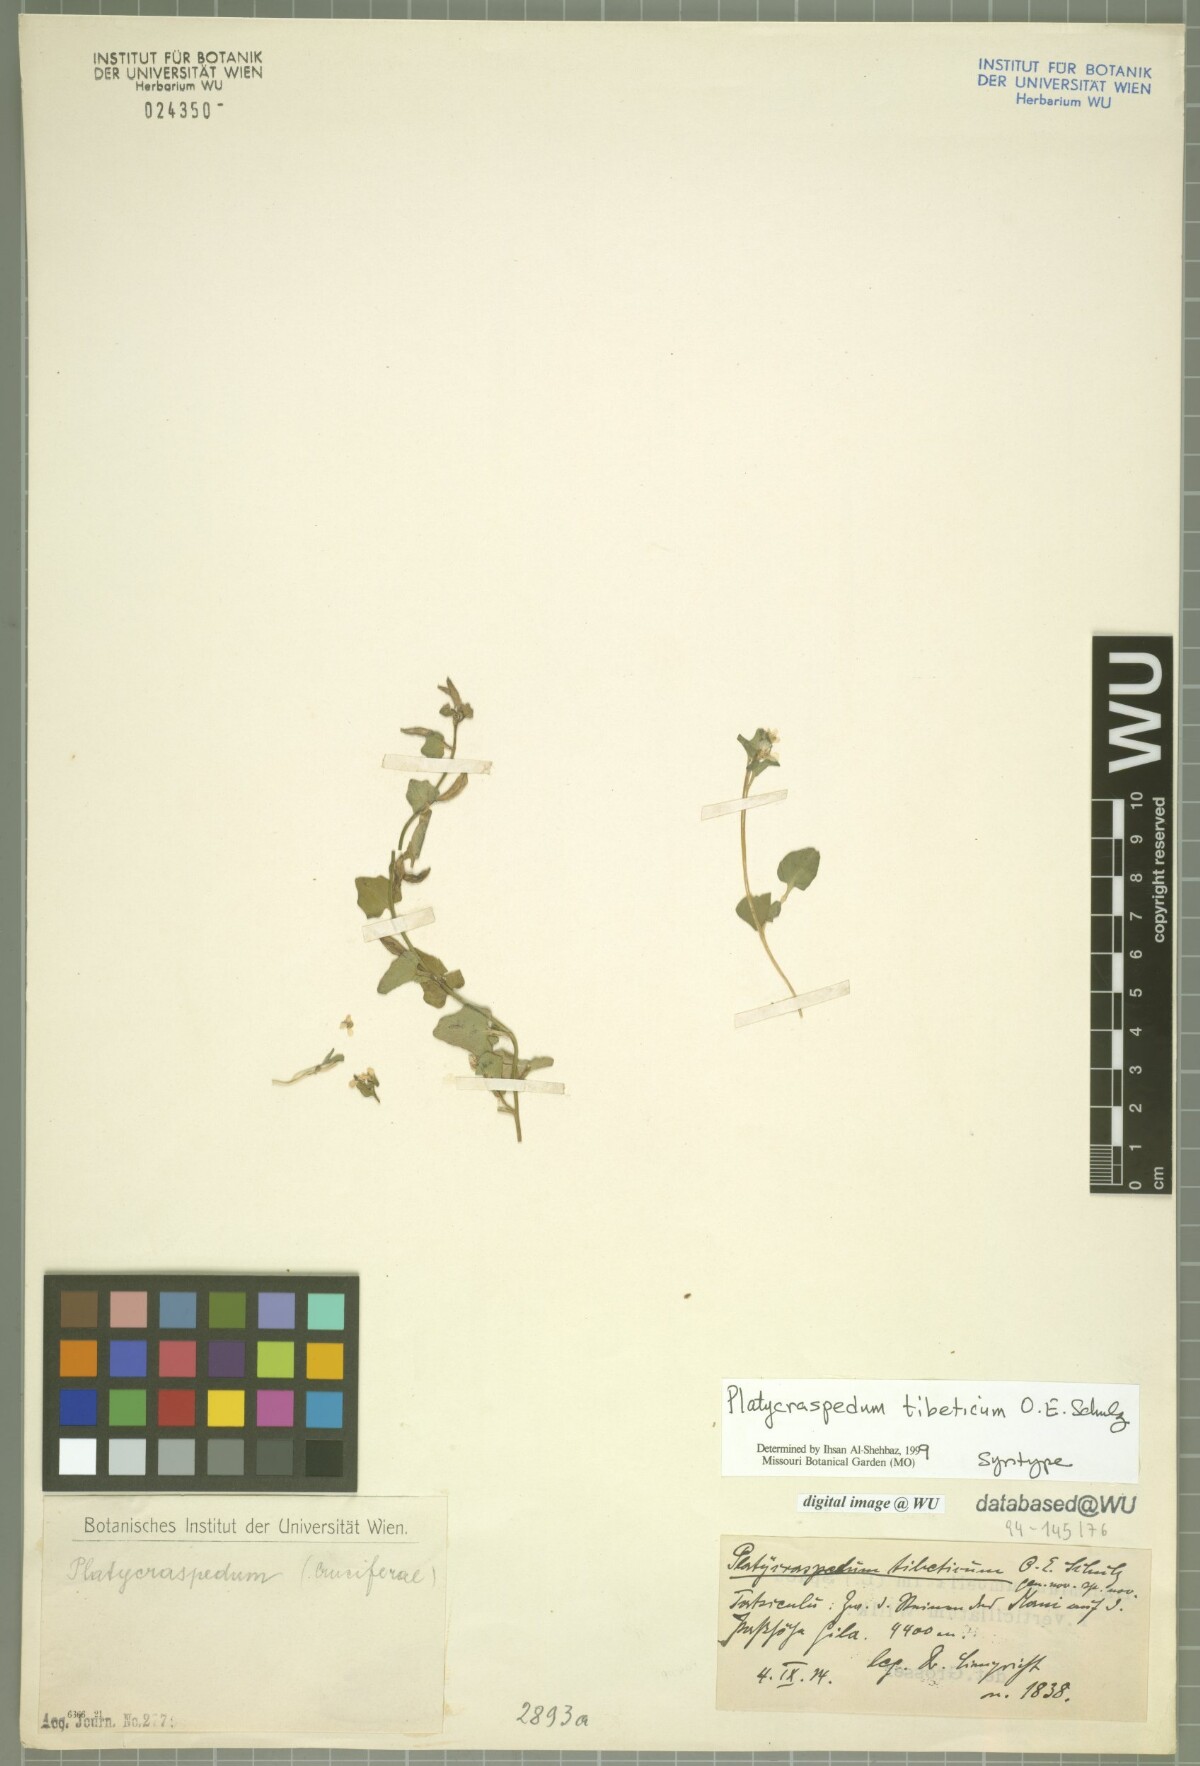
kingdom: Plantae
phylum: Tracheophyta
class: Magnoliopsida
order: Brassicales
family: Brassicaceae
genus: Eutrema
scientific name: Eutrema schulzii
